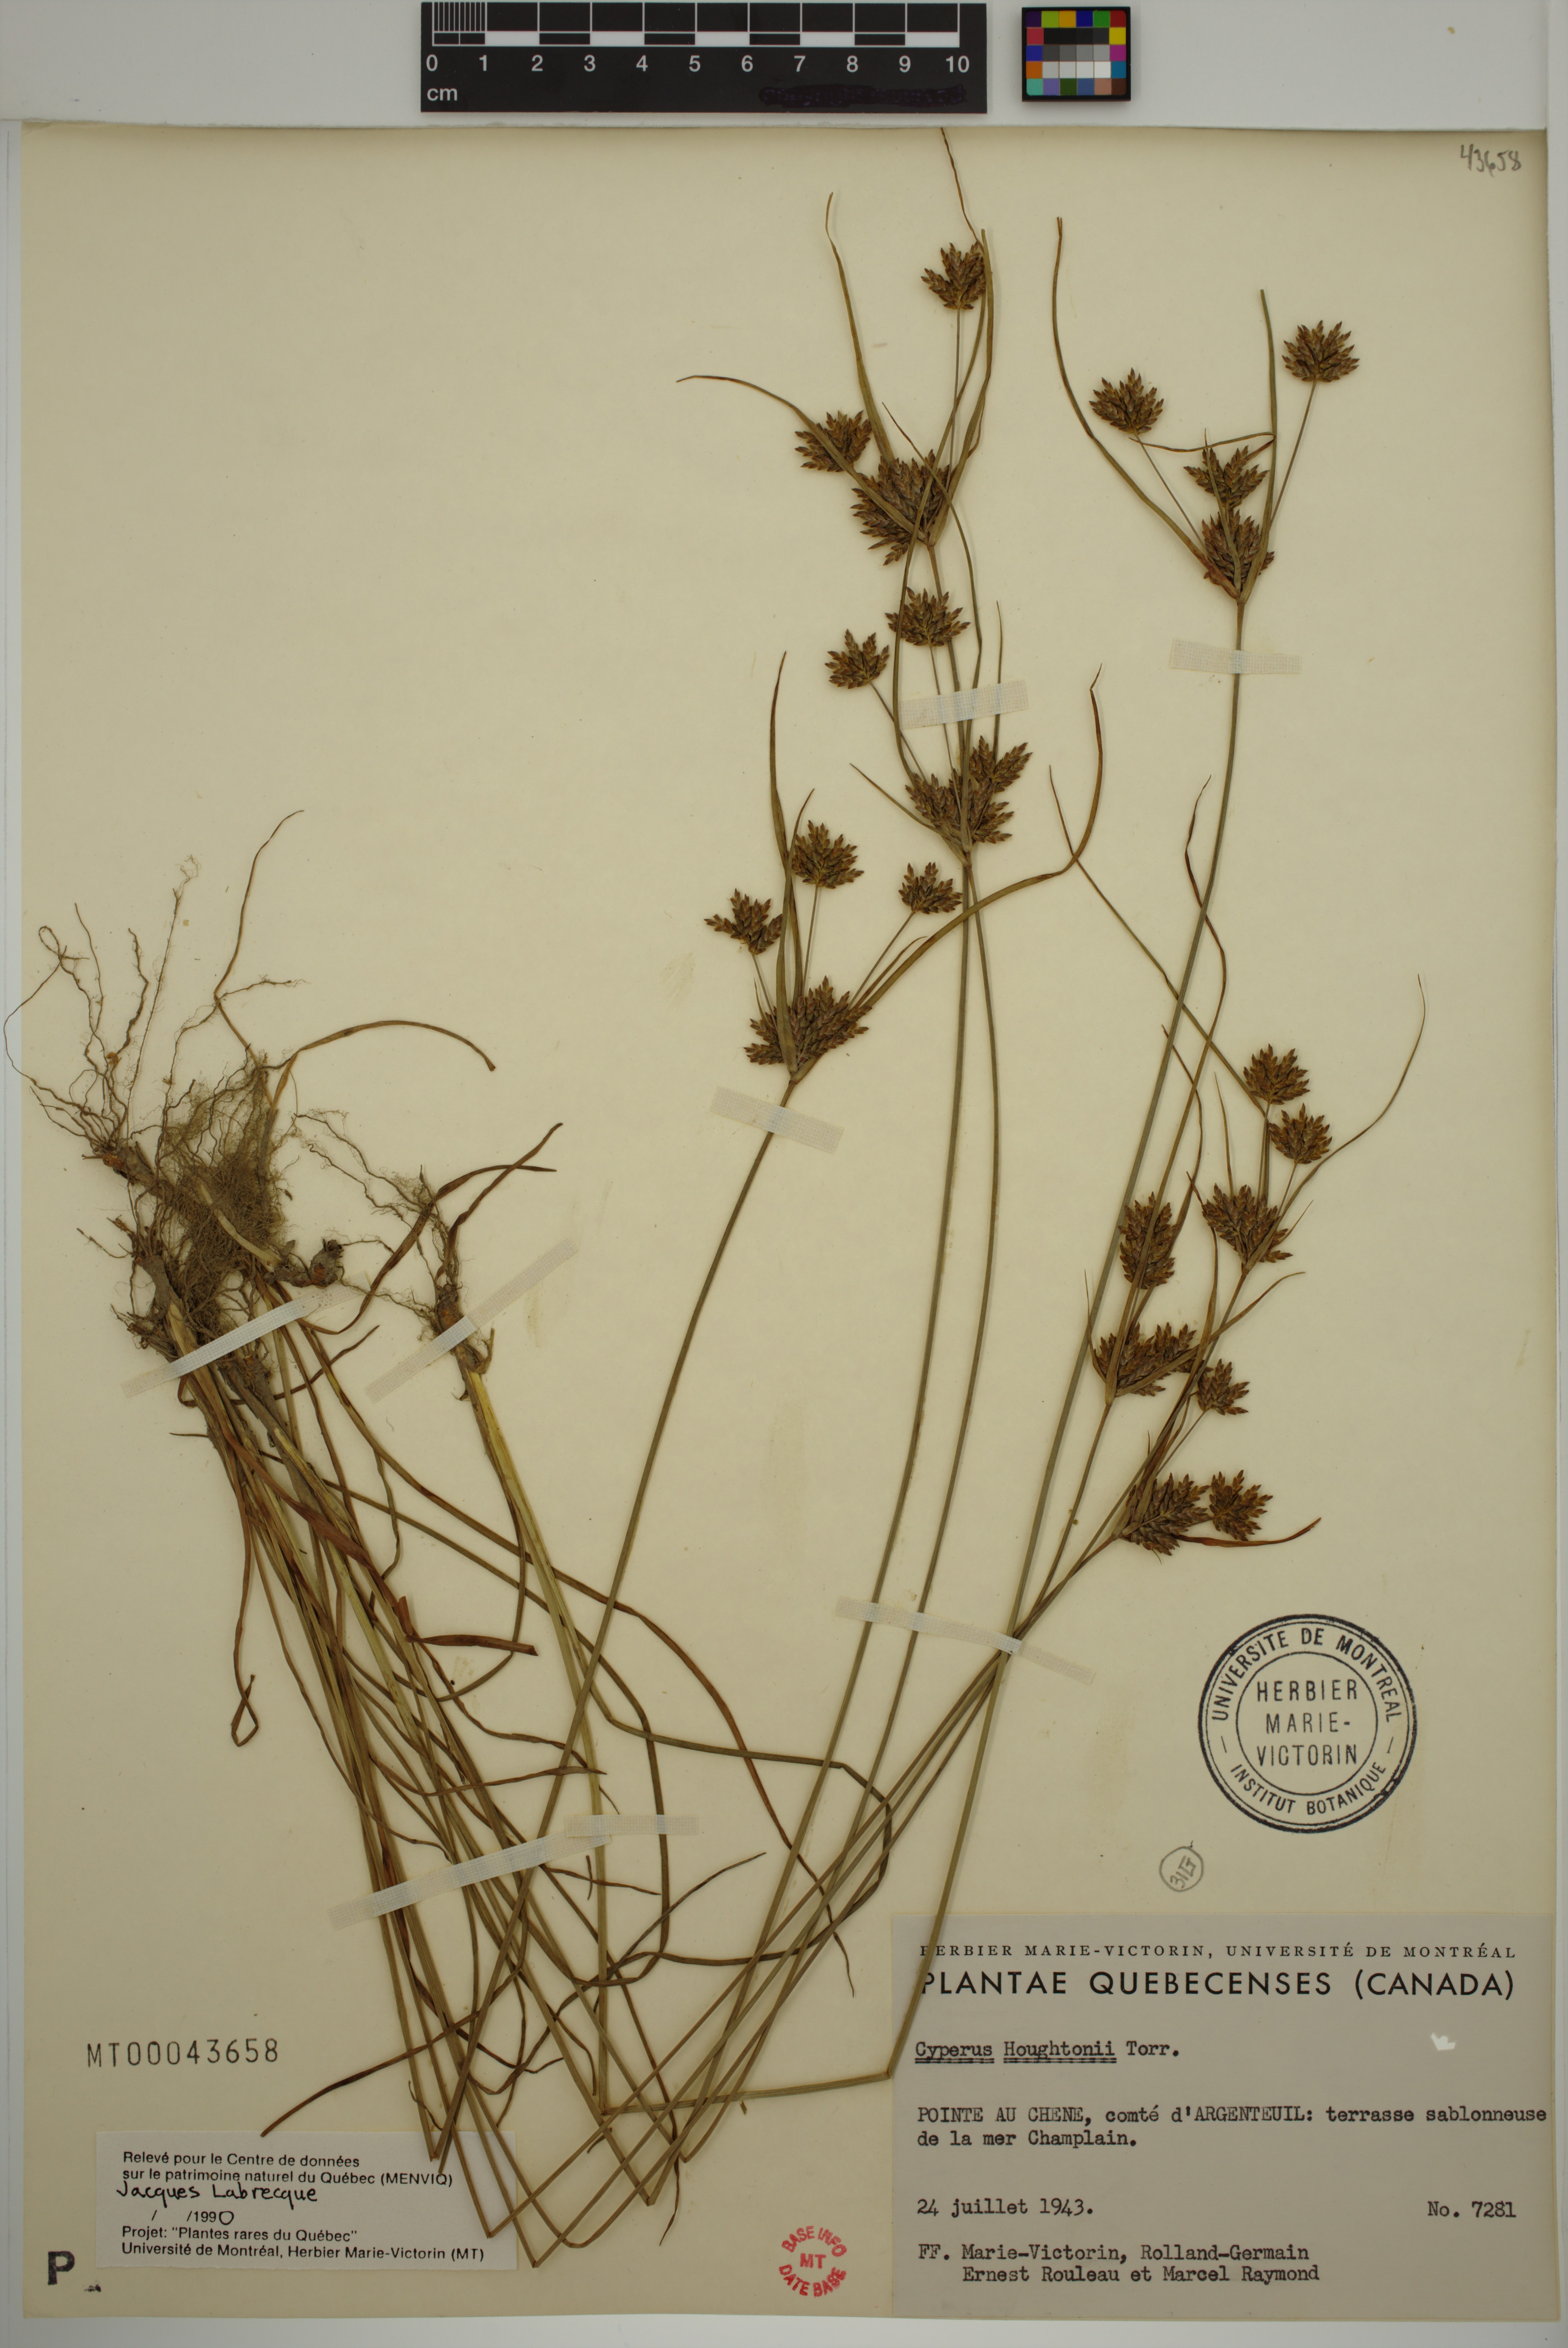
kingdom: Plantae
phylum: Tracheophyta
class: Liliopsida
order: Poales
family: Cyperaceae
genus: Cyperus
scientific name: Cyperus houghtonii
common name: Houghton's cyperus
